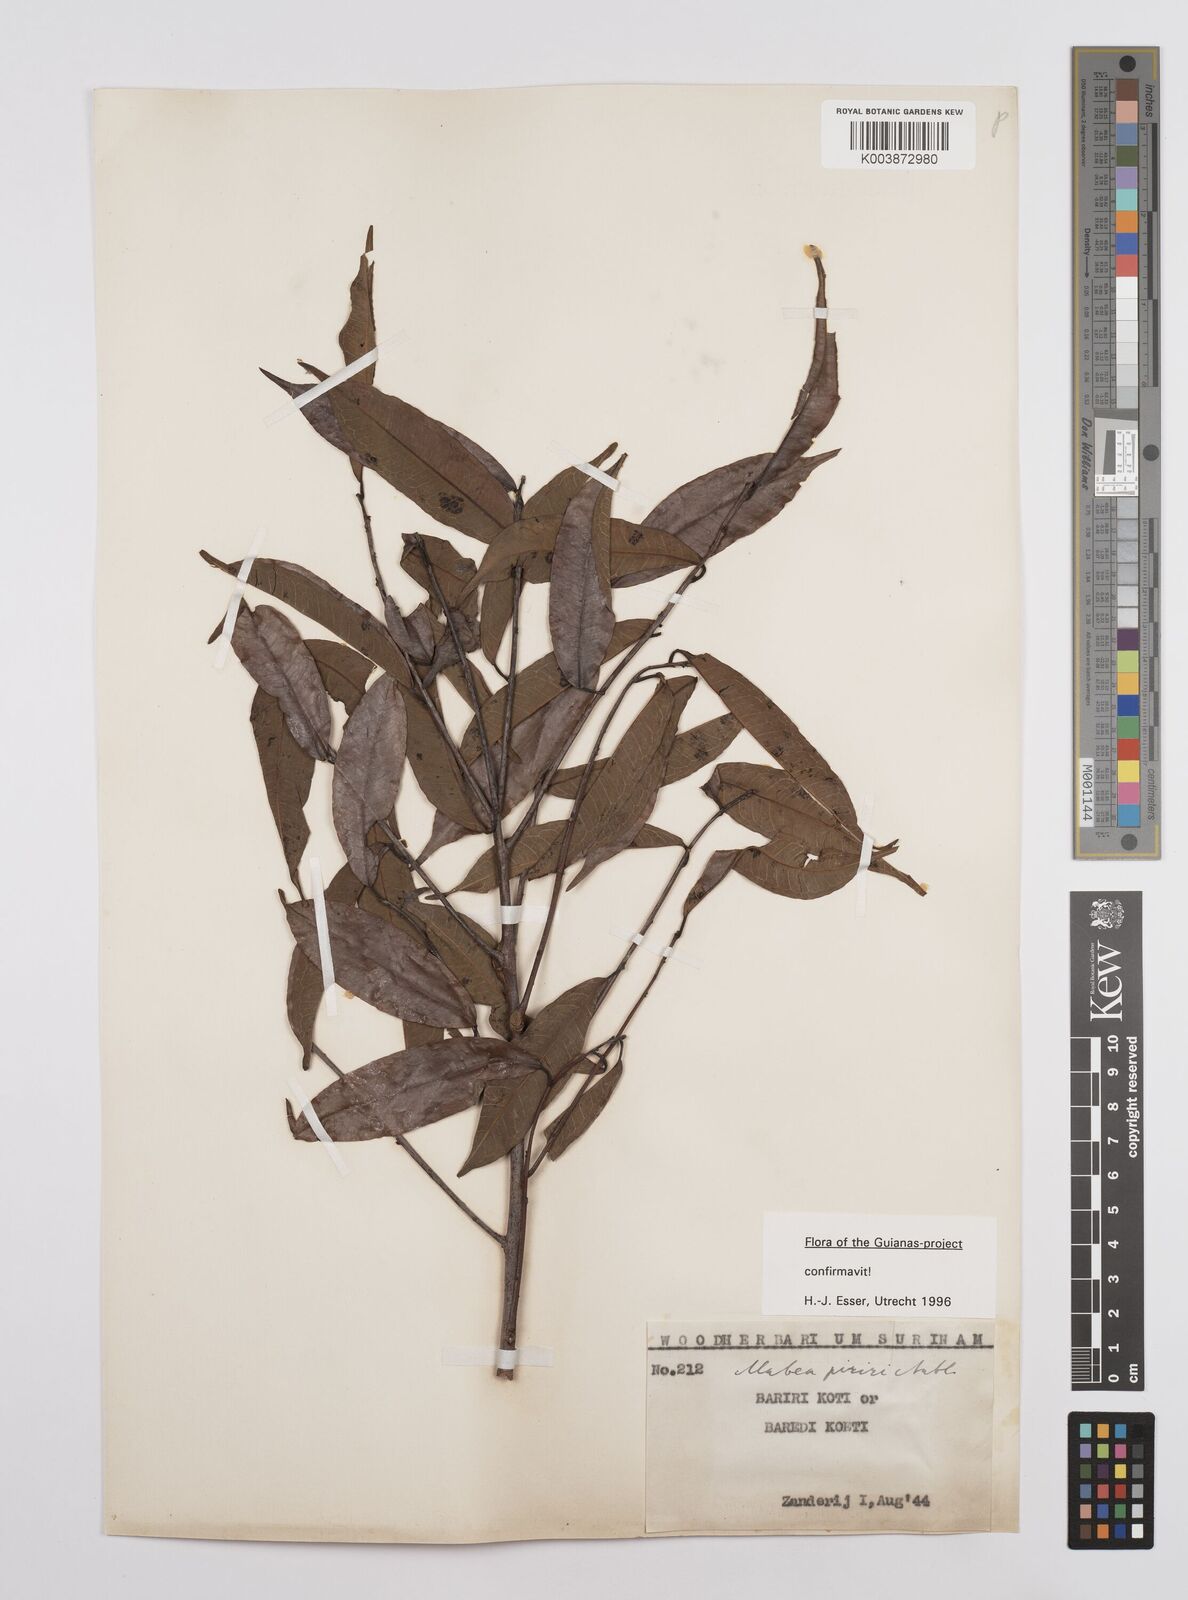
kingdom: Plantae
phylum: Tracheophyta
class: Magnoliopsida
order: Malpighiales
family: Euphorbiaceae
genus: Mabea
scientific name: Mabea piriri
